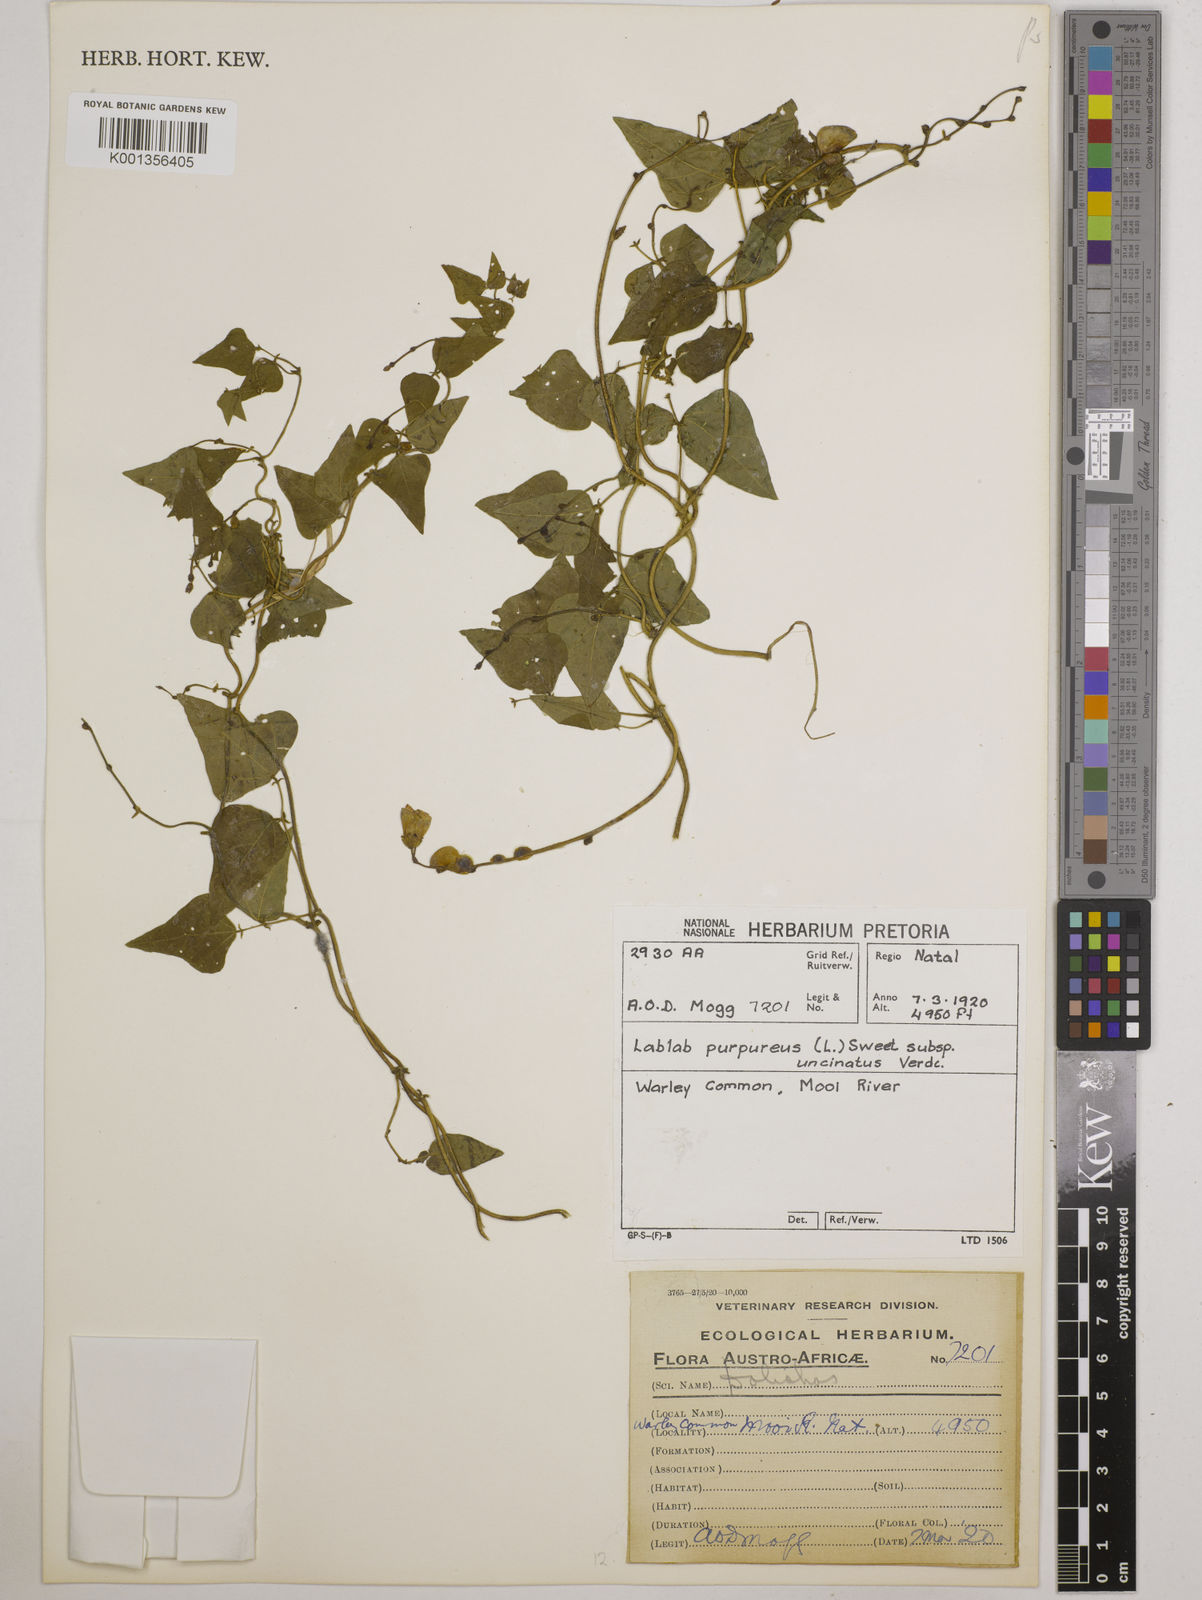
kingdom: Plantae
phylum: Tracheophyta
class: Magnoliopsida
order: Fabales
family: Fabaceae
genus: Lablab
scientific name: Lablab purpureus
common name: Lablab-bean
